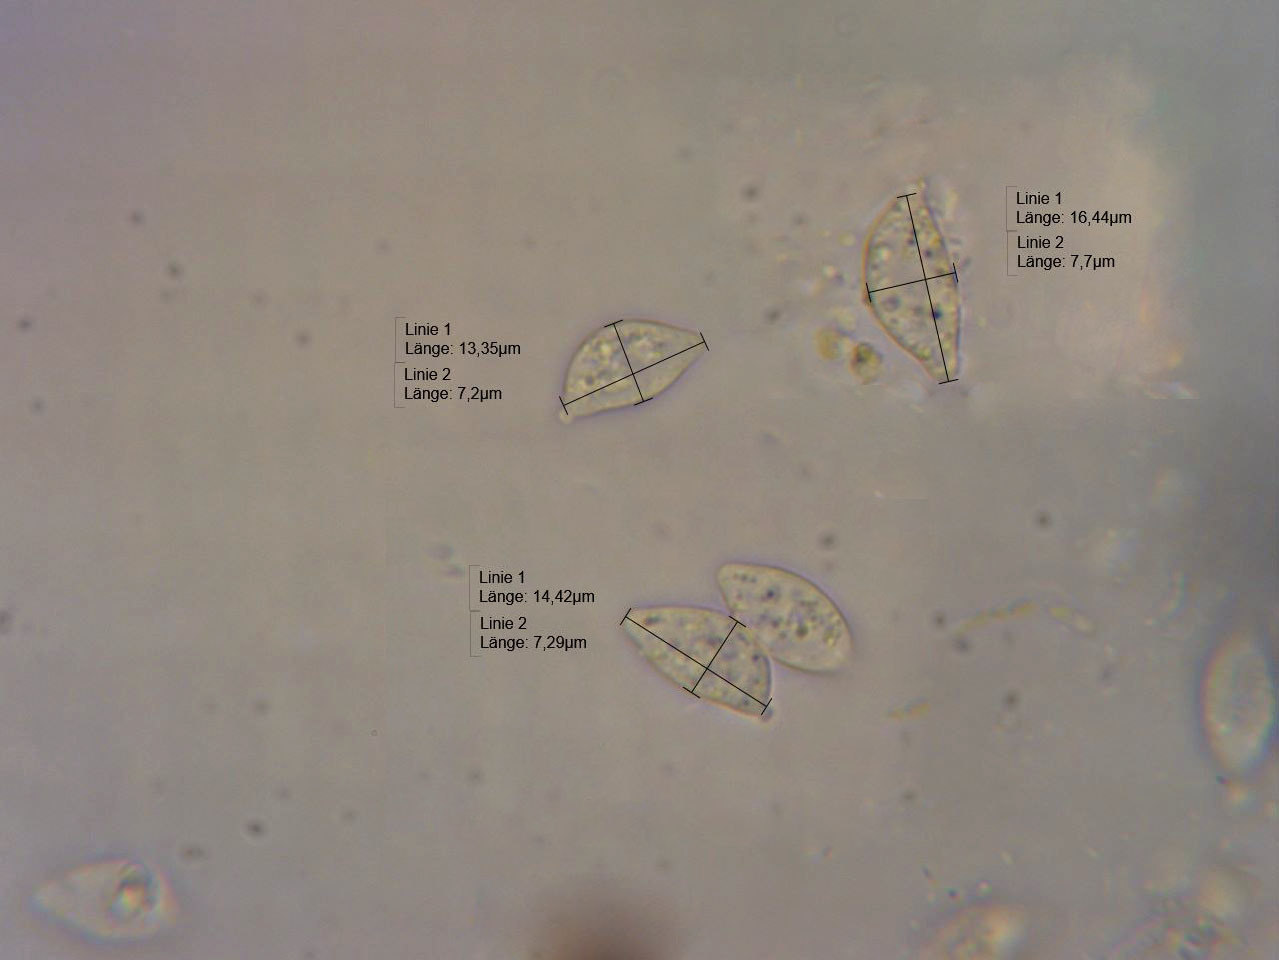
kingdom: Fungi
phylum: Basidiomycota
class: Agaricomycetes
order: Cantharellales
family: Ceratobasidiaceae
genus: Rhizoctonia
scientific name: Rhizoctonia fusispora
